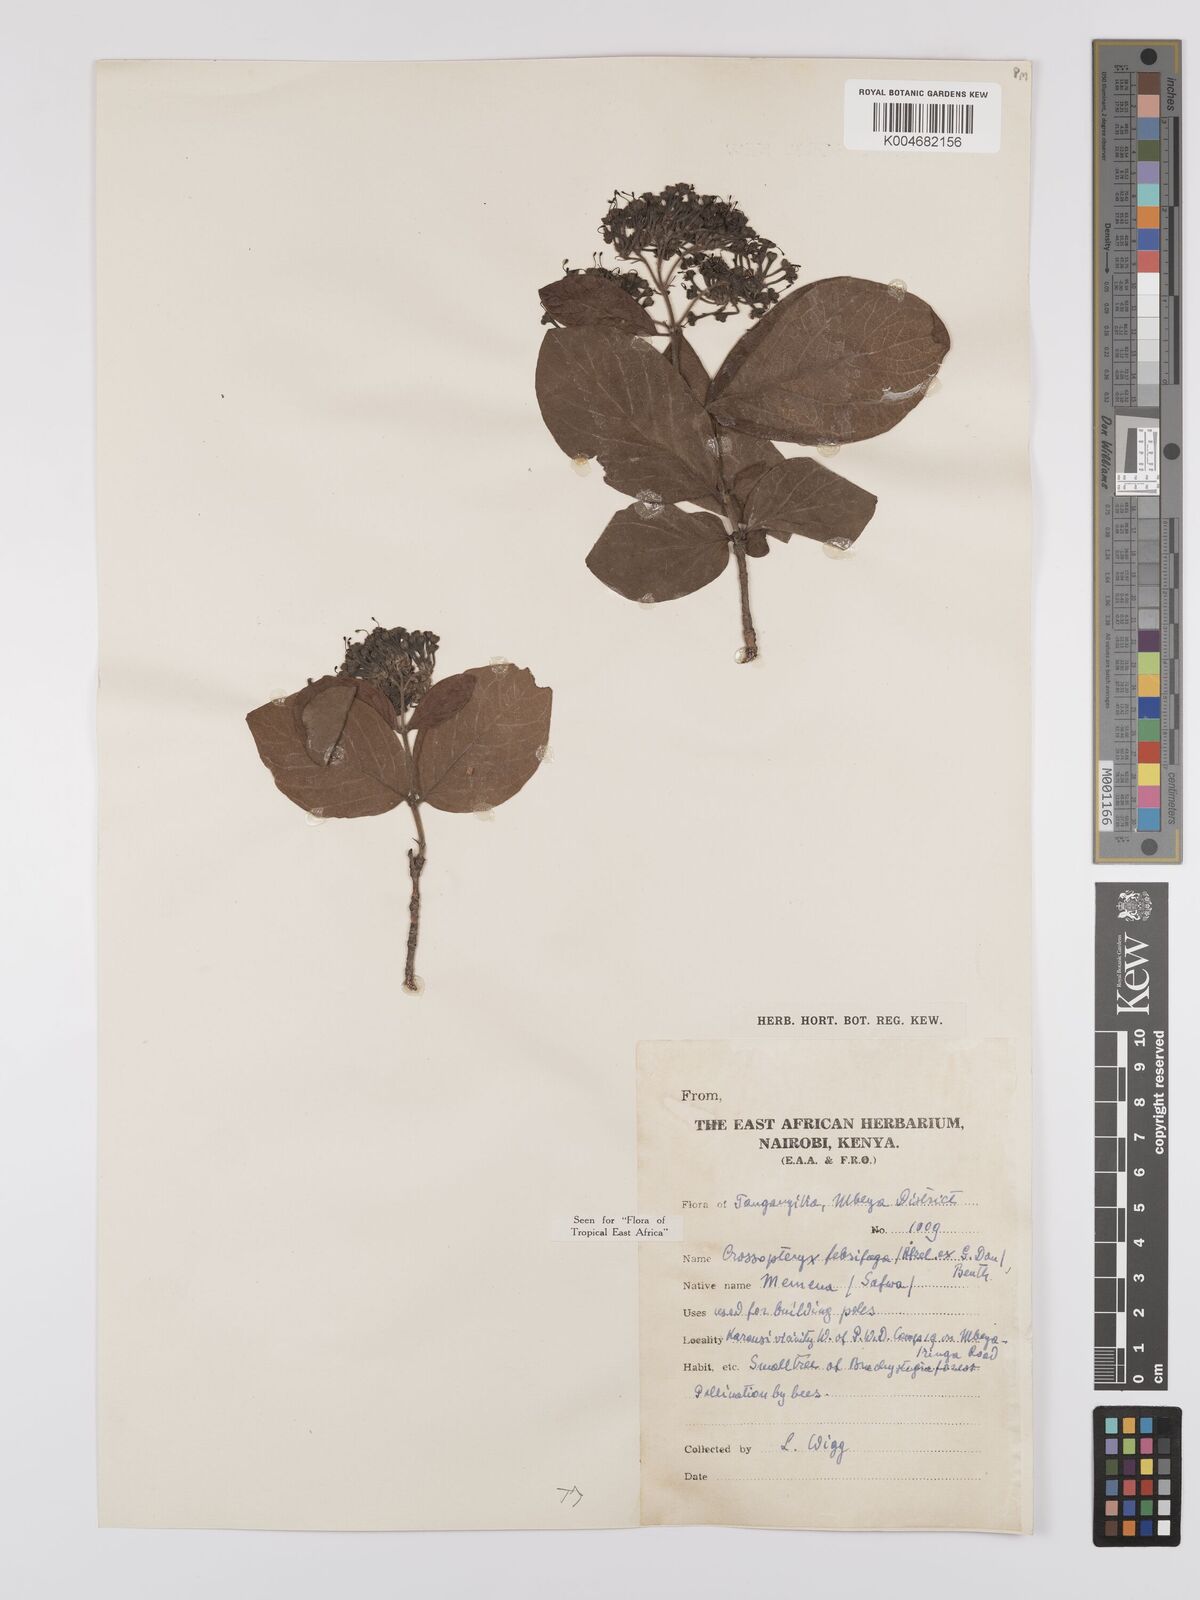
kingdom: Plantae
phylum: Tracheophyta
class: Magnoliopsida
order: Gentianales
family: Rubiaceae
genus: Crossopteryx
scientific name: Crossopteryx febrifuga
